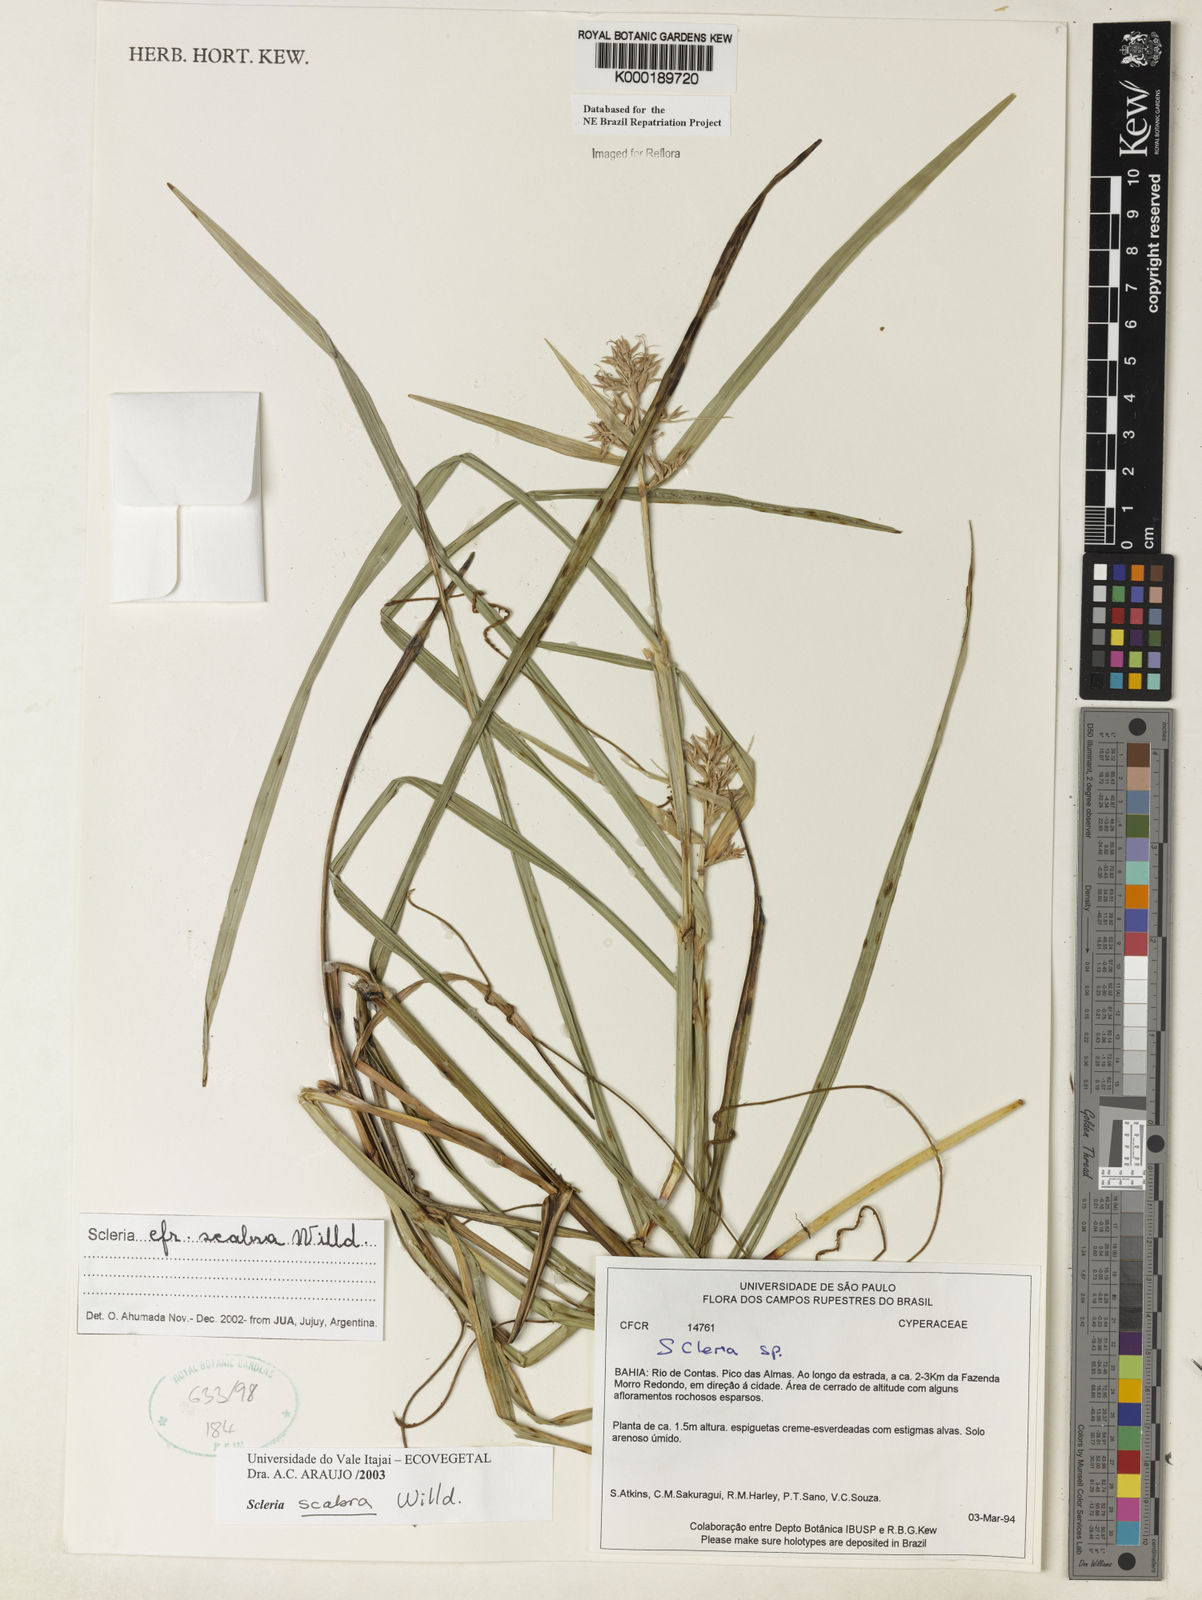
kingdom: Plantae
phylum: Tracheophyta
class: Liliopsida
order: Poales
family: Cyperaceae
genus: Scleria
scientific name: Scleria scabra
